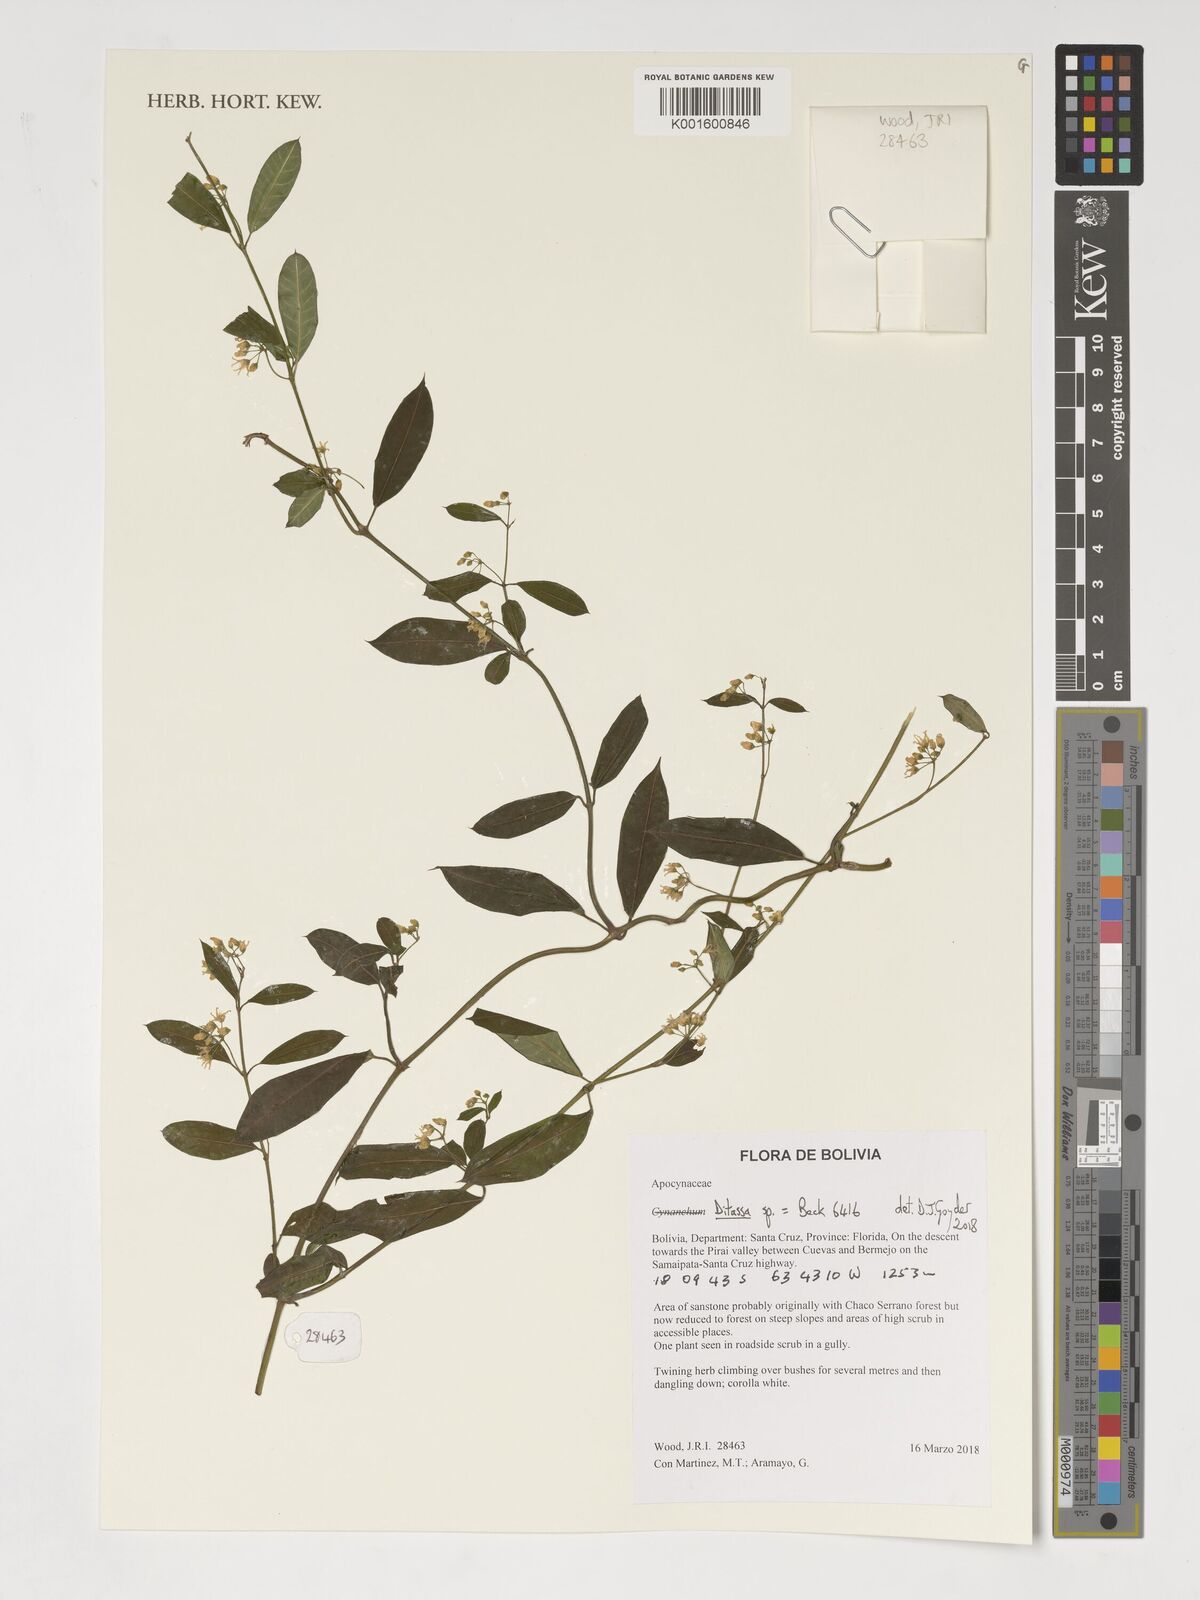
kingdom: Plantae
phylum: Tracheophyta
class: Magnoliopsida
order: Gentianales
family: Apocynaceae
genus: Ditassa
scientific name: Ditassa
